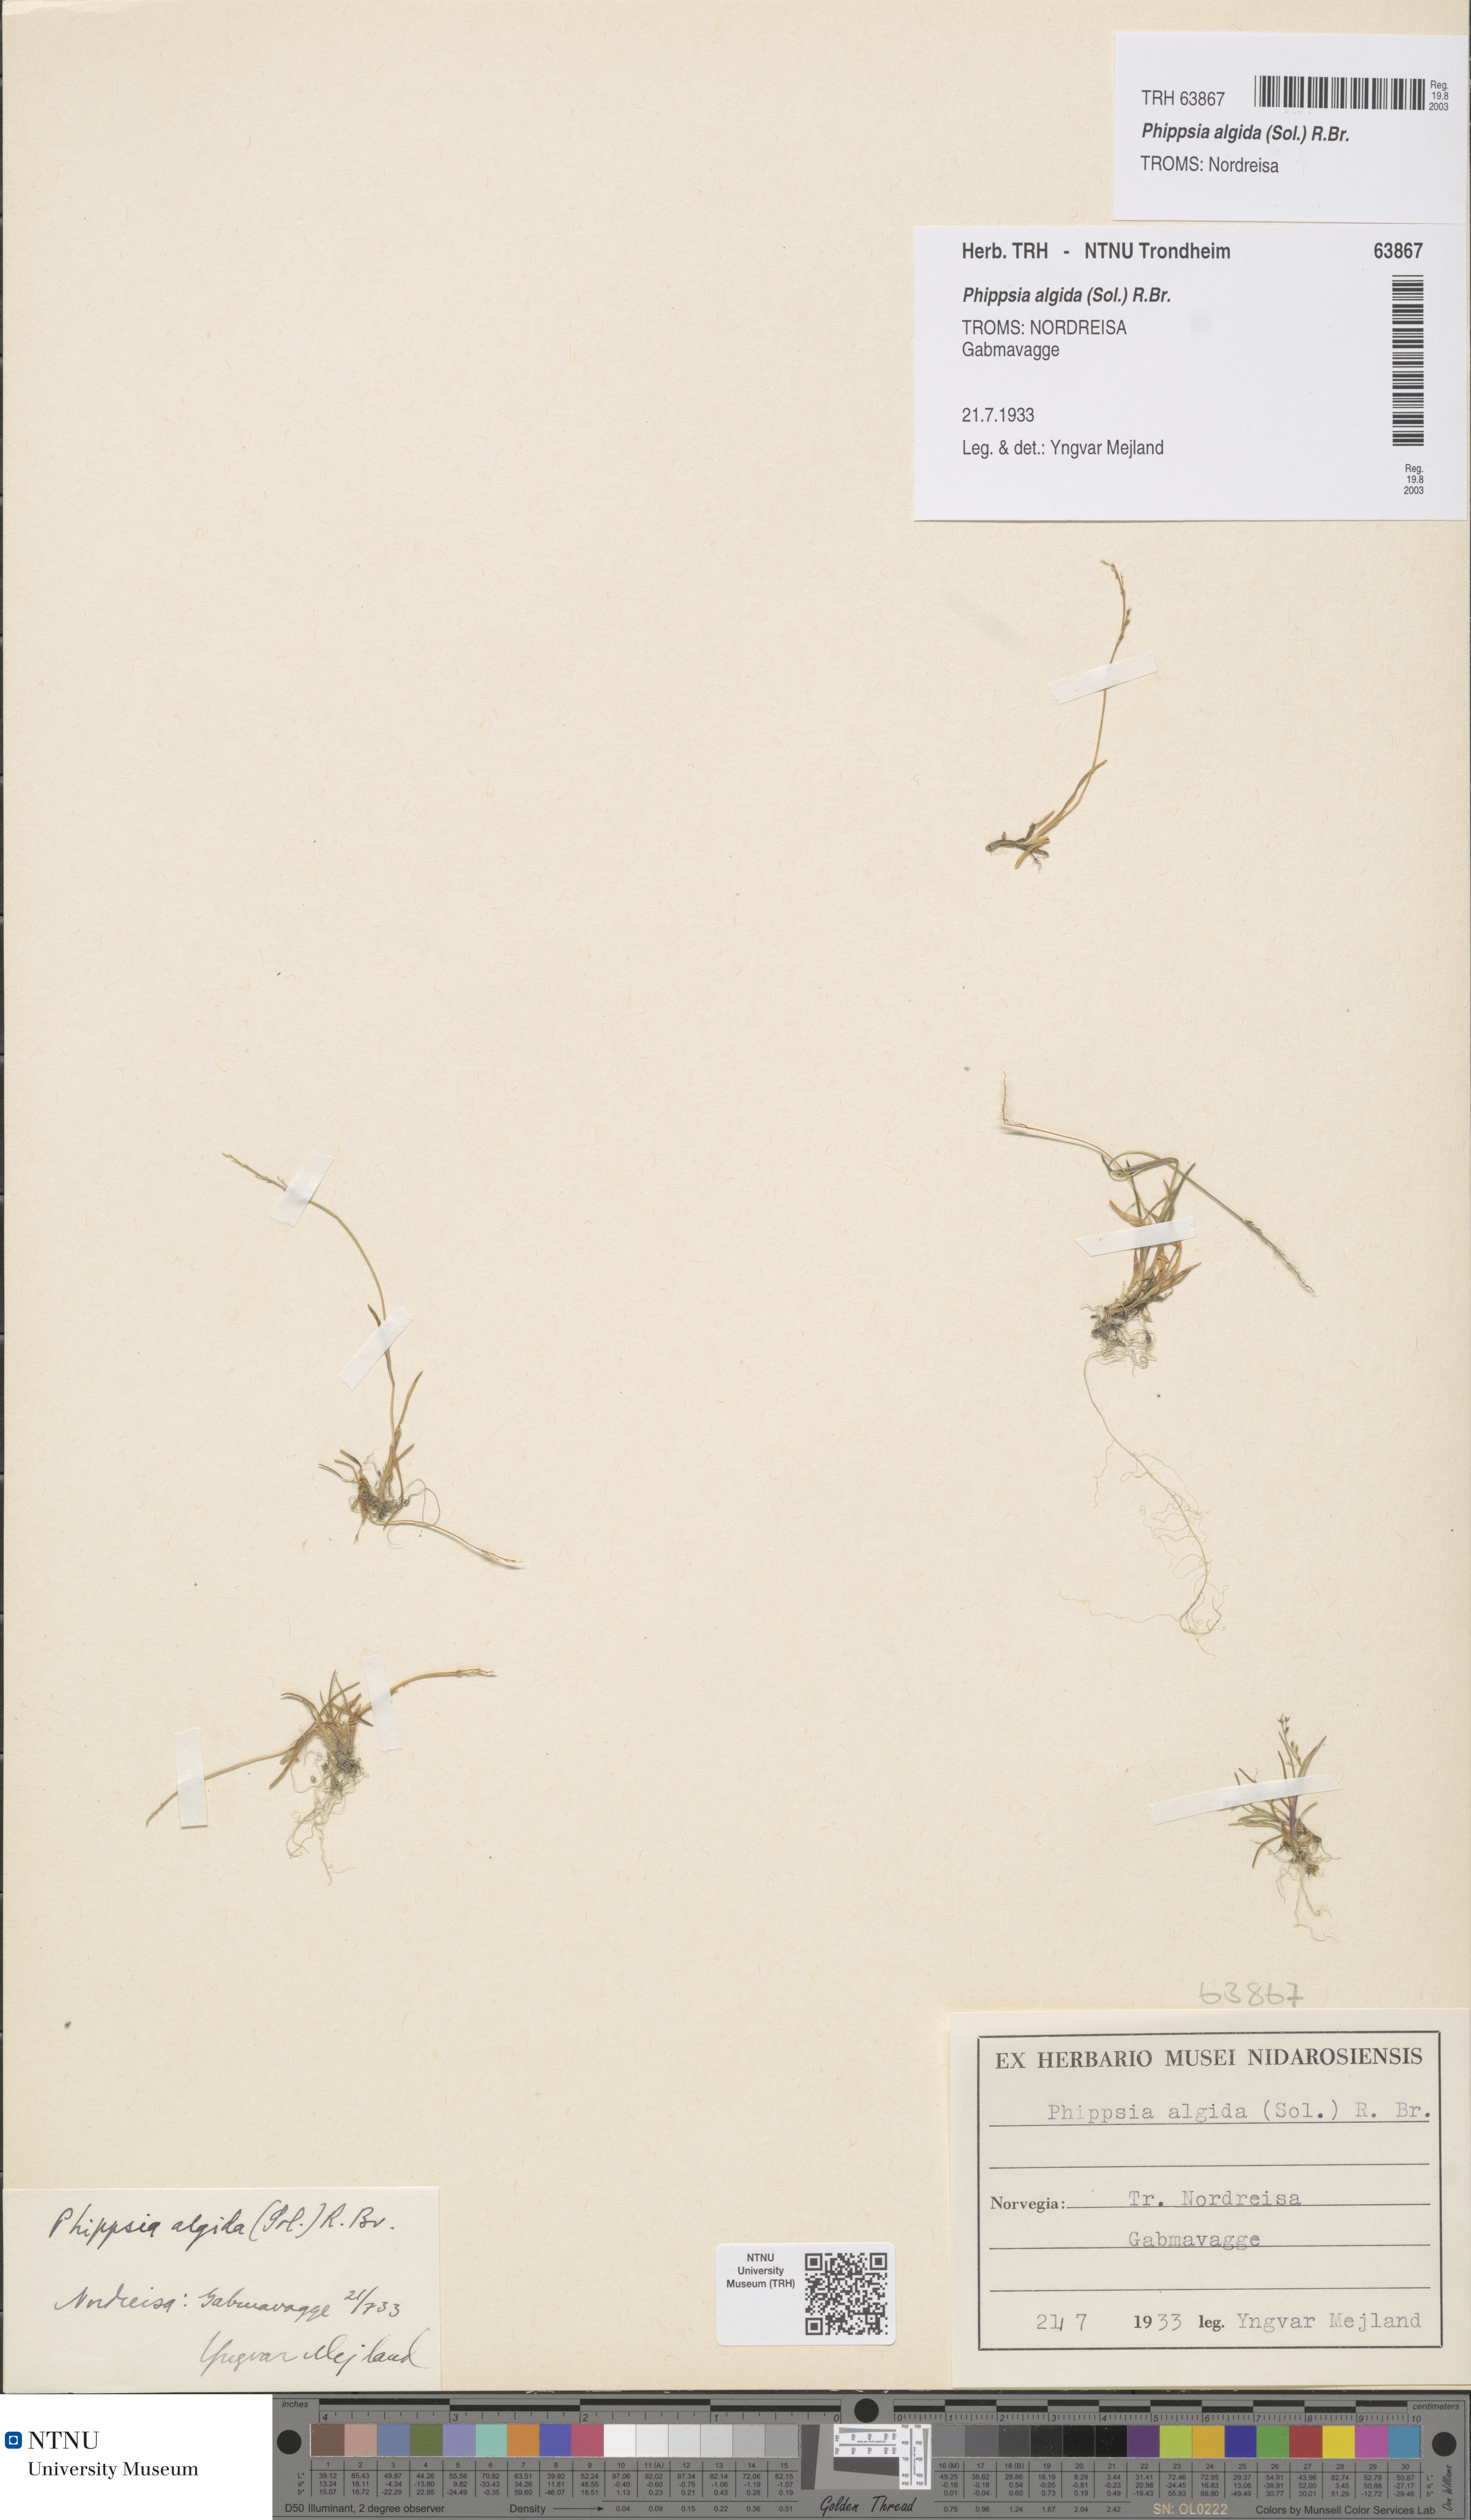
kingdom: Plantae
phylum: Tracheophyta
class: Liliopsida
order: Poales
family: Poaceae
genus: Phippsia
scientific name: Phippsia algida
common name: Ice grass
